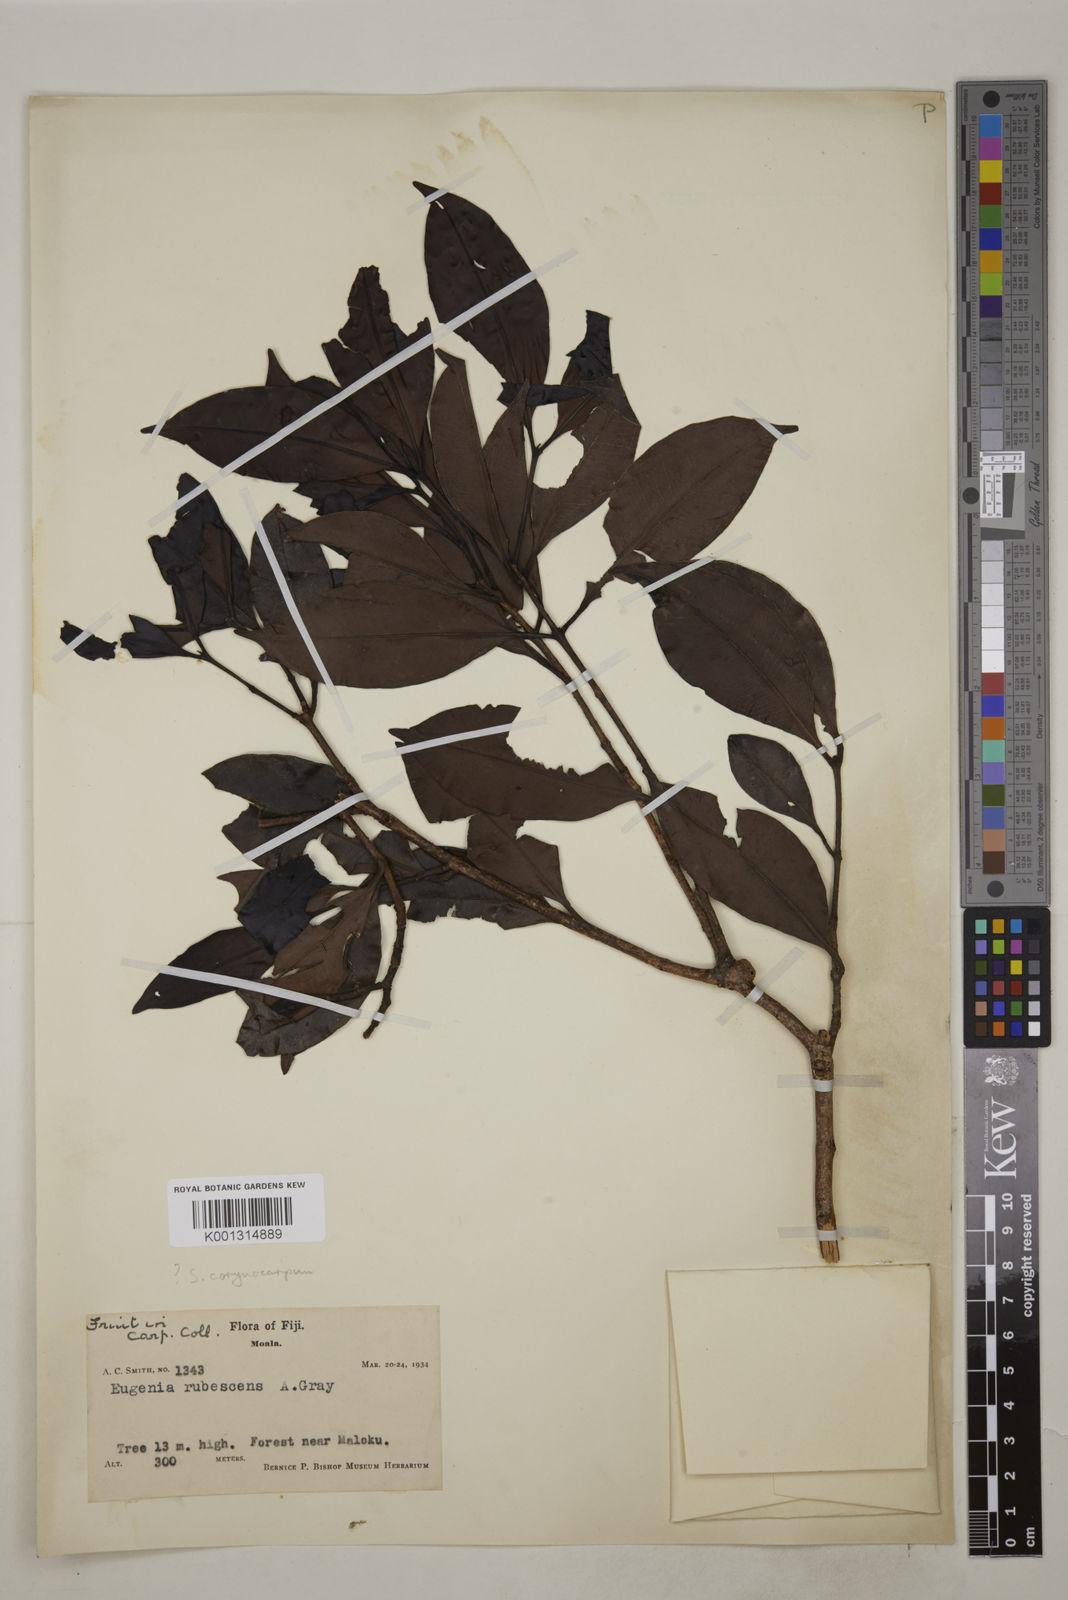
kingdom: Plantae
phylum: Tracheophyta
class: Magnoliopsida
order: Myrtales
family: Myrtaceae
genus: Syzygium
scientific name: Syzygium seemannii
